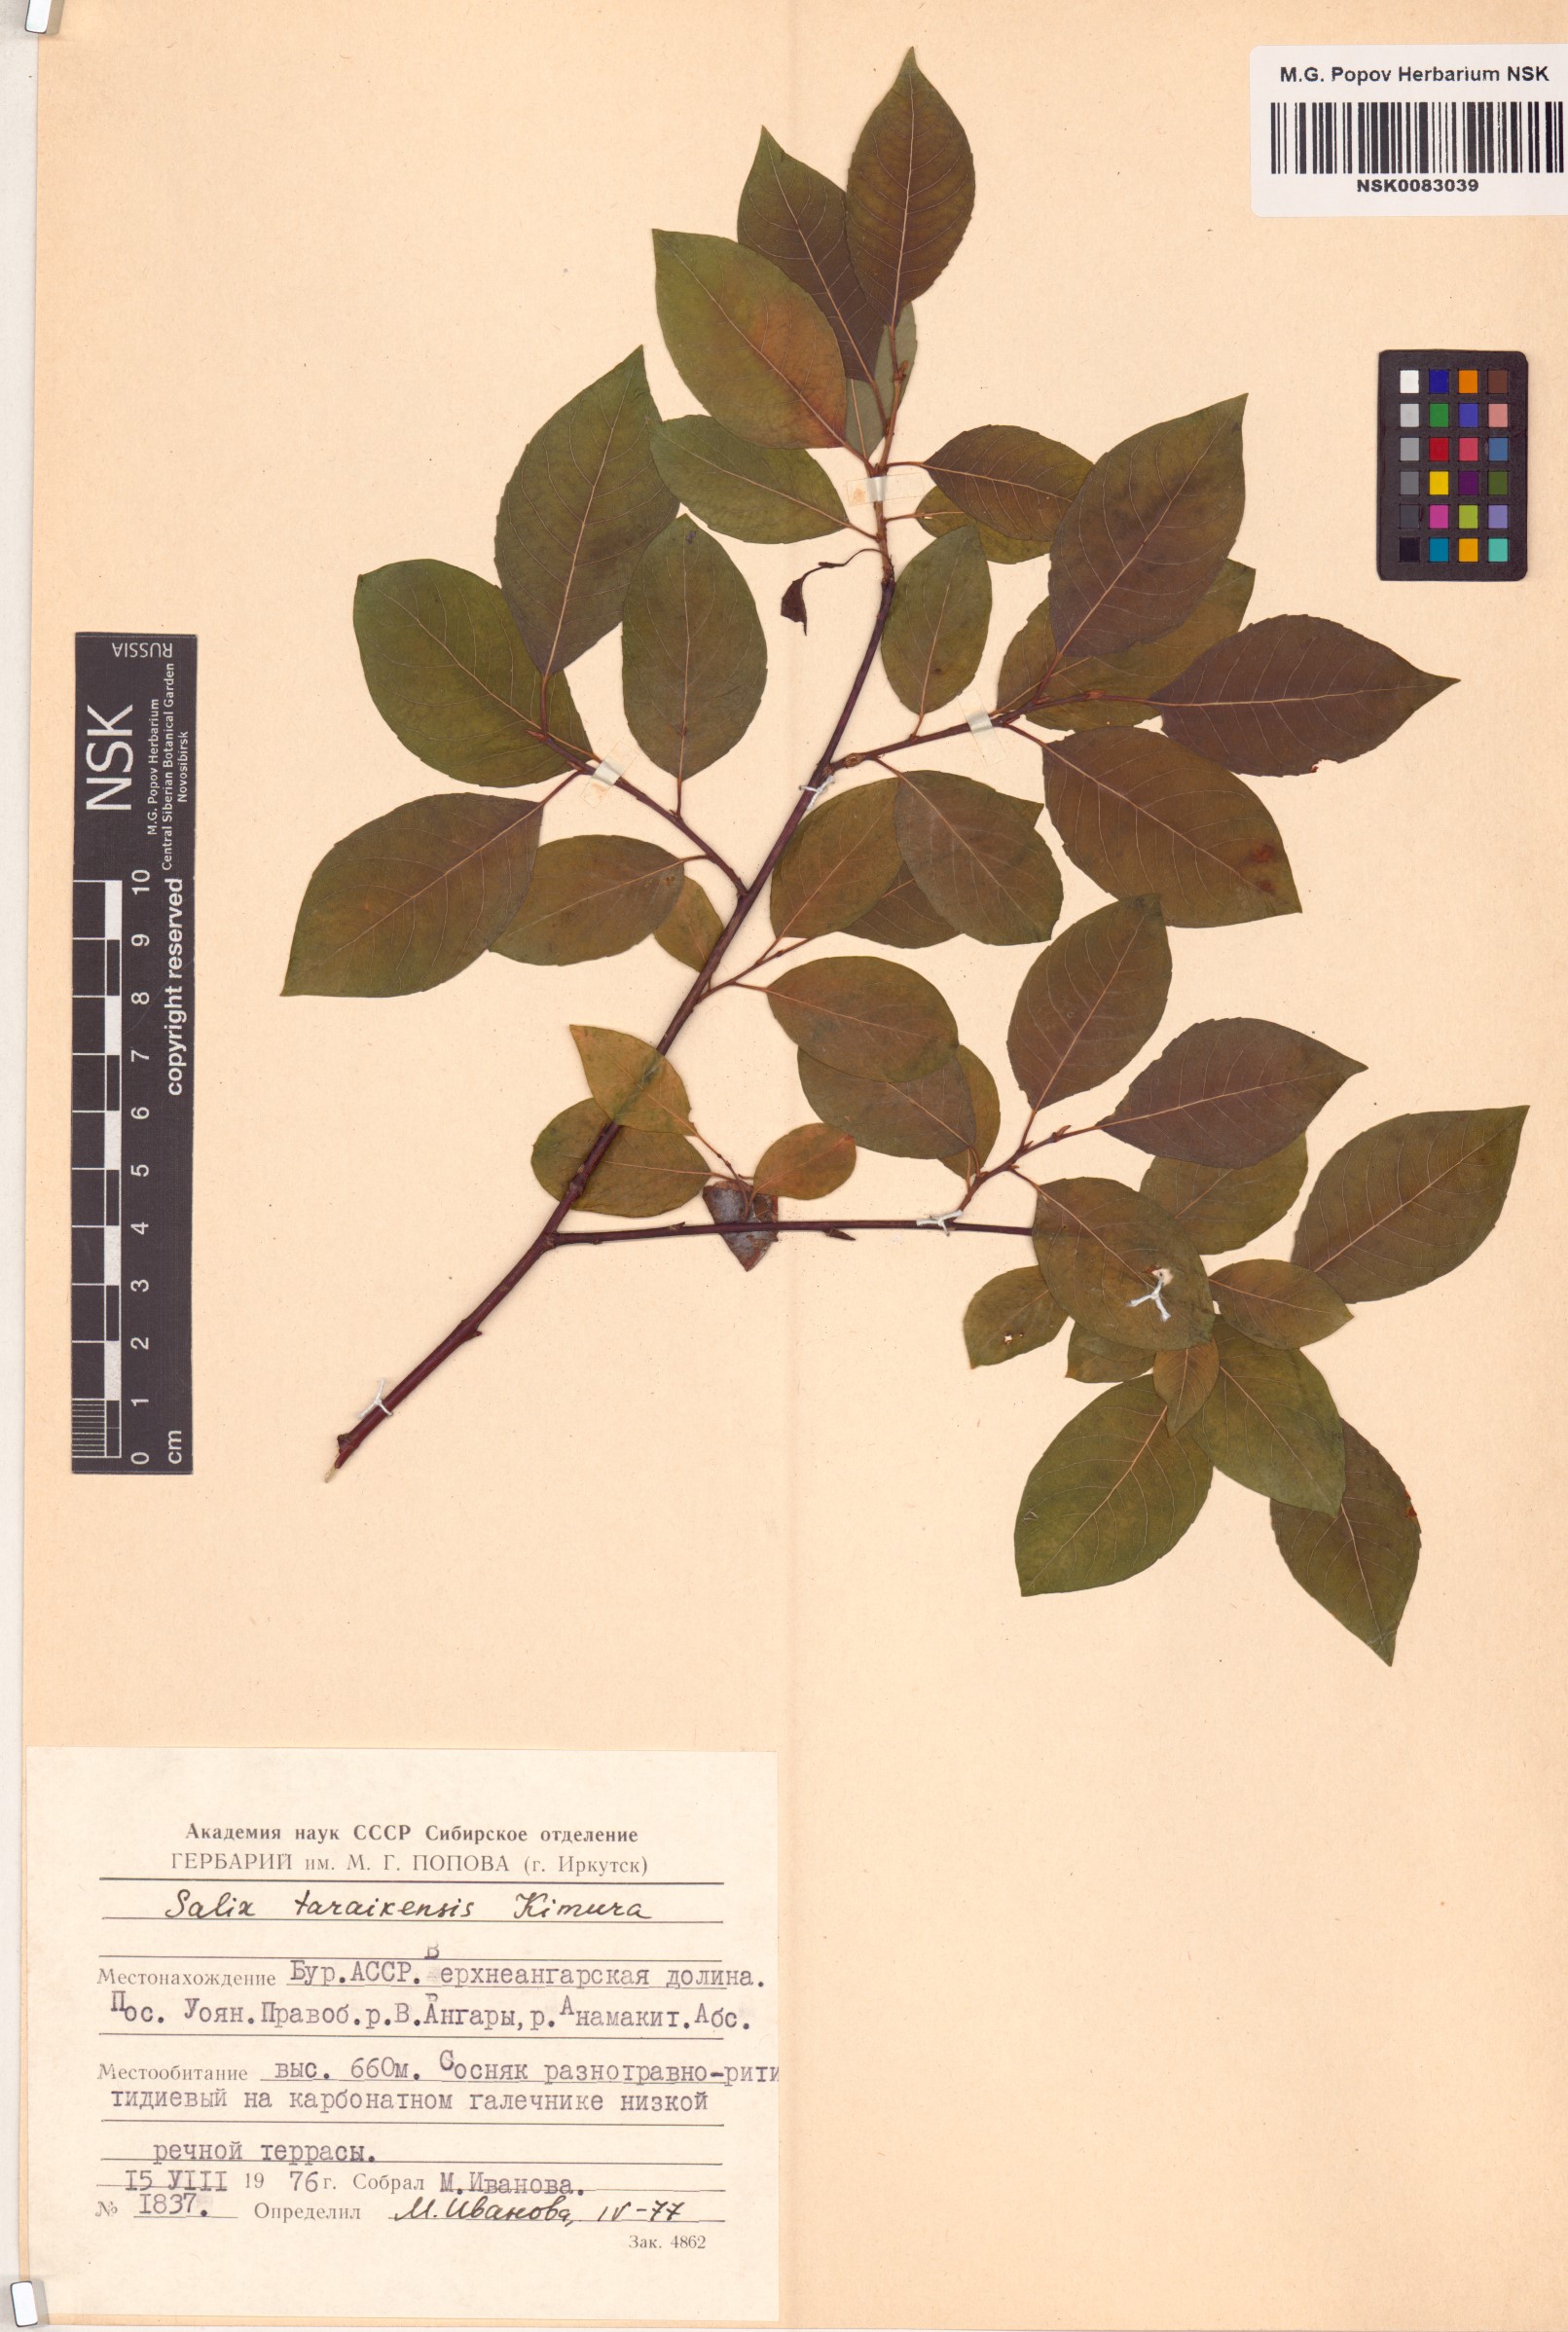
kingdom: Plantae
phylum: Tracheophyta
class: Magnoliopsida
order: Malpighiales
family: Salicaceae
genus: Salix
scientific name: Salix taraikensis
